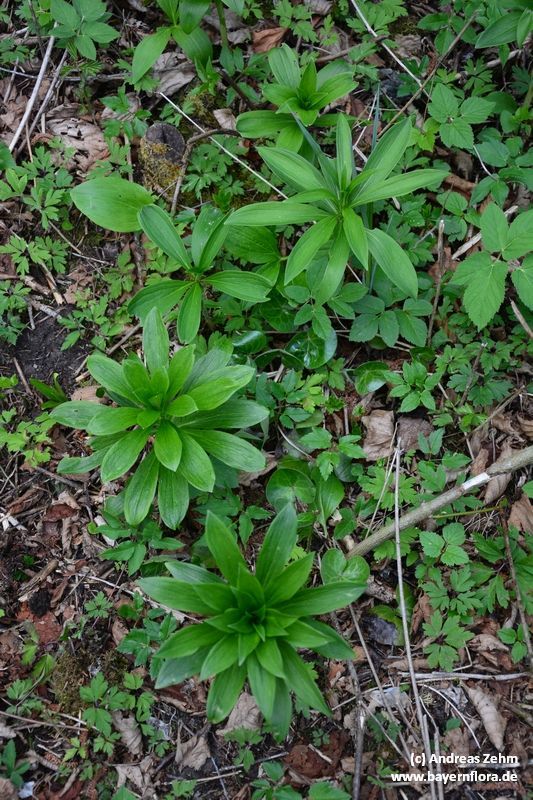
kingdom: Plantae
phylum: Tracheophyta
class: Liliopsida
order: Liliales
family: Liliaceae
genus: Lilium
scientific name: Lilium martagon
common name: Martagon lily
